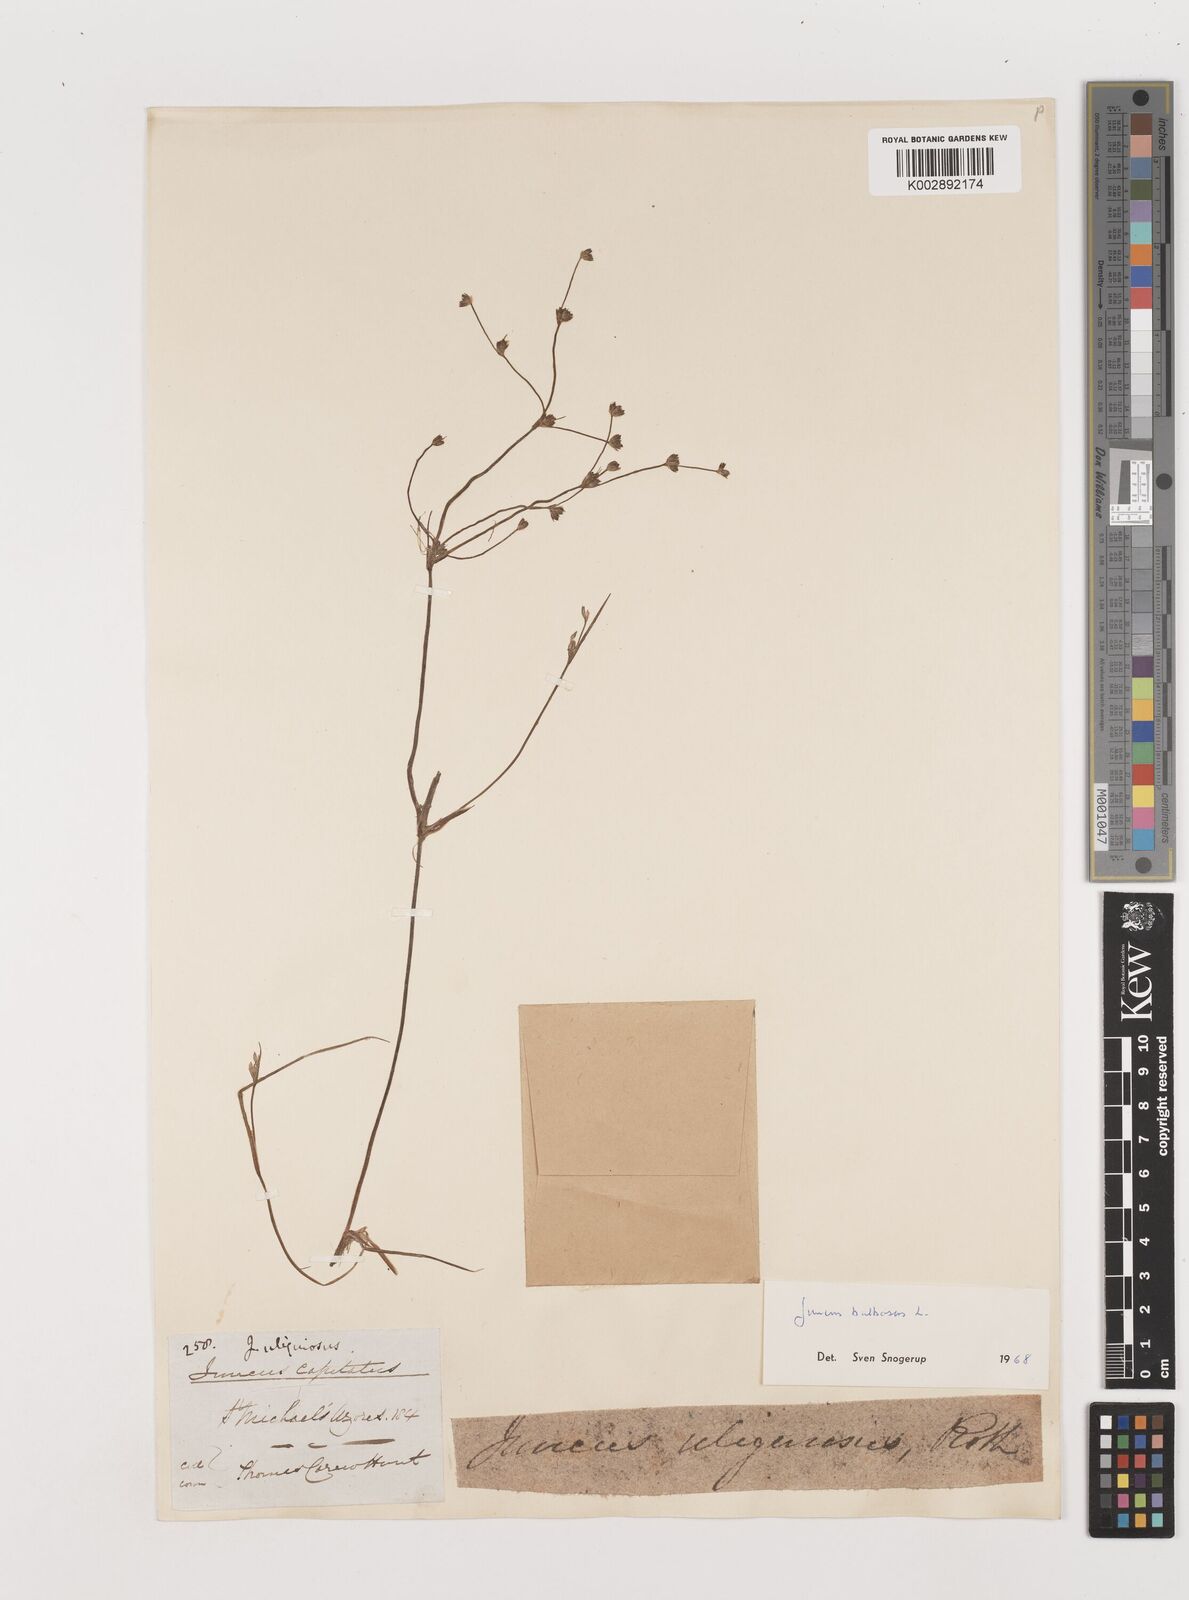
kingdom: Plantae
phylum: Tracheophyta
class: Liliopsida
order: Poales
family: Juncaceae
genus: Juncus
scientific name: Juncus bulbosus
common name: Bulbous rush
